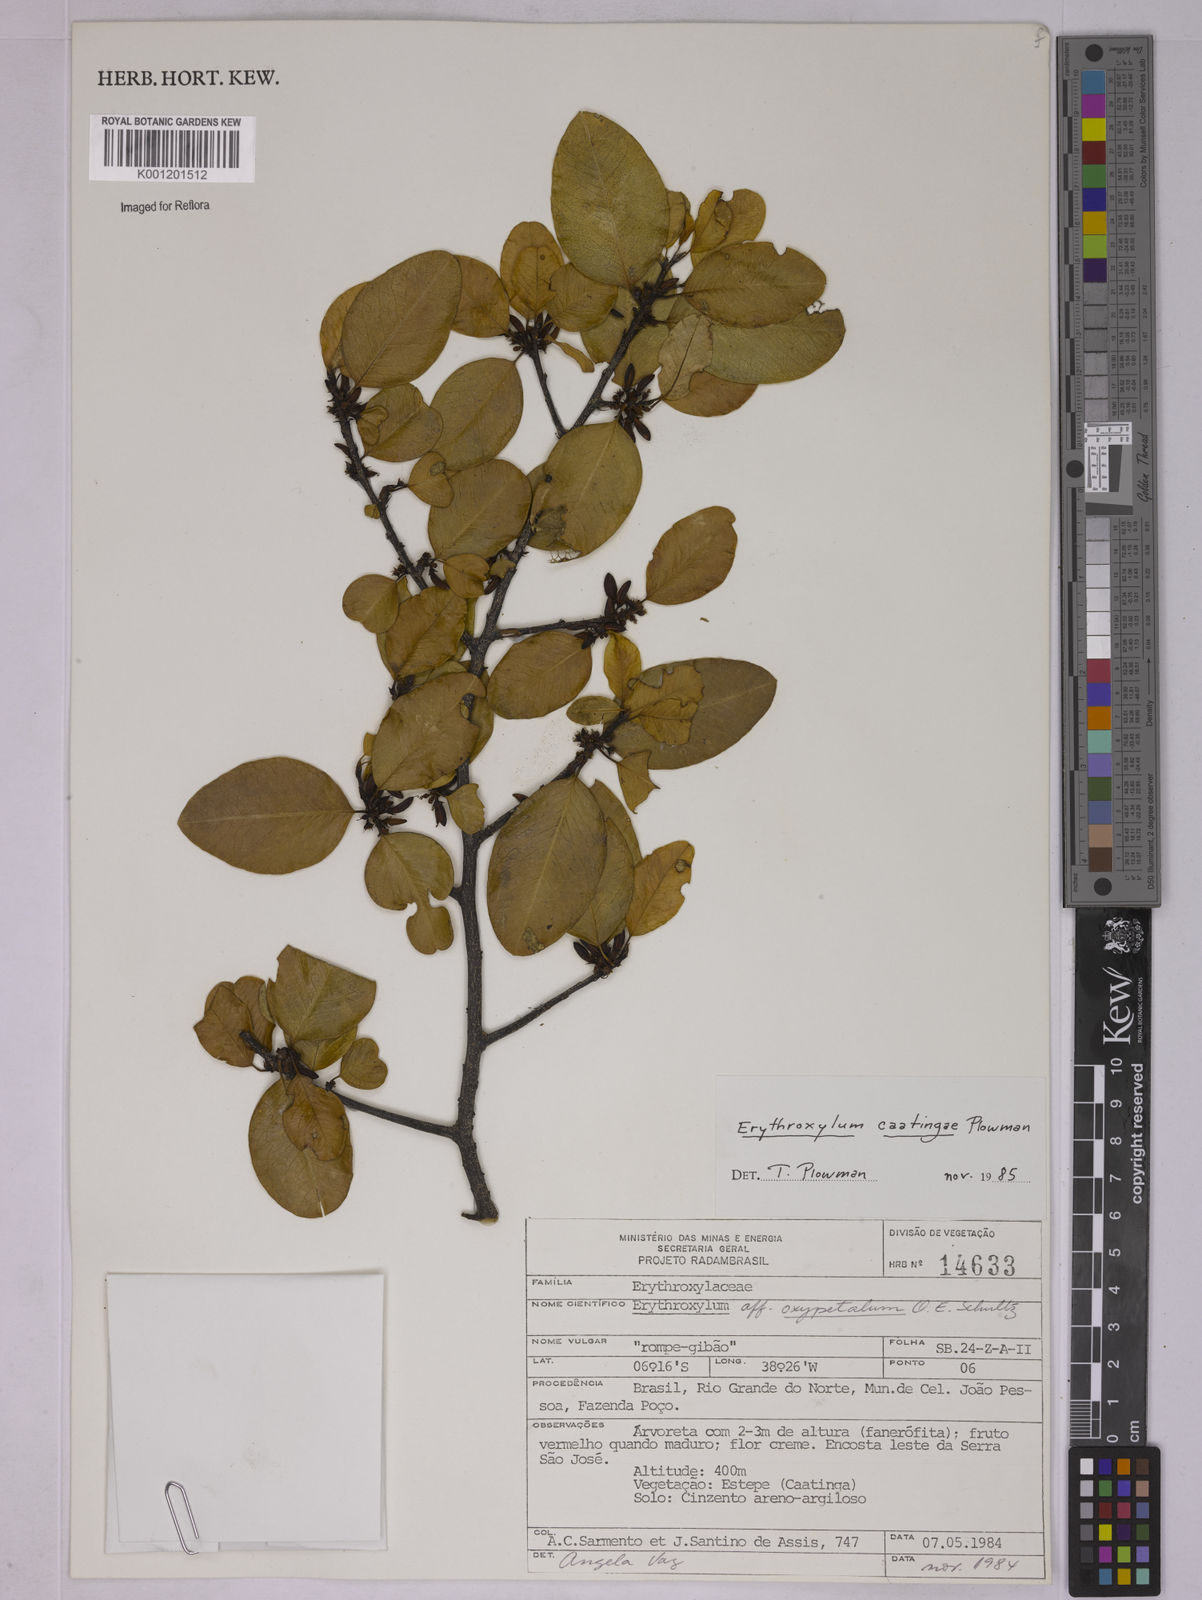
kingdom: Plantae
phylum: Tracheophyta
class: Magnoliopsida
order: Malpighiales
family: Erythroxylaceae
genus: Erythroxylum
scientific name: Erythroxylum caatingae
